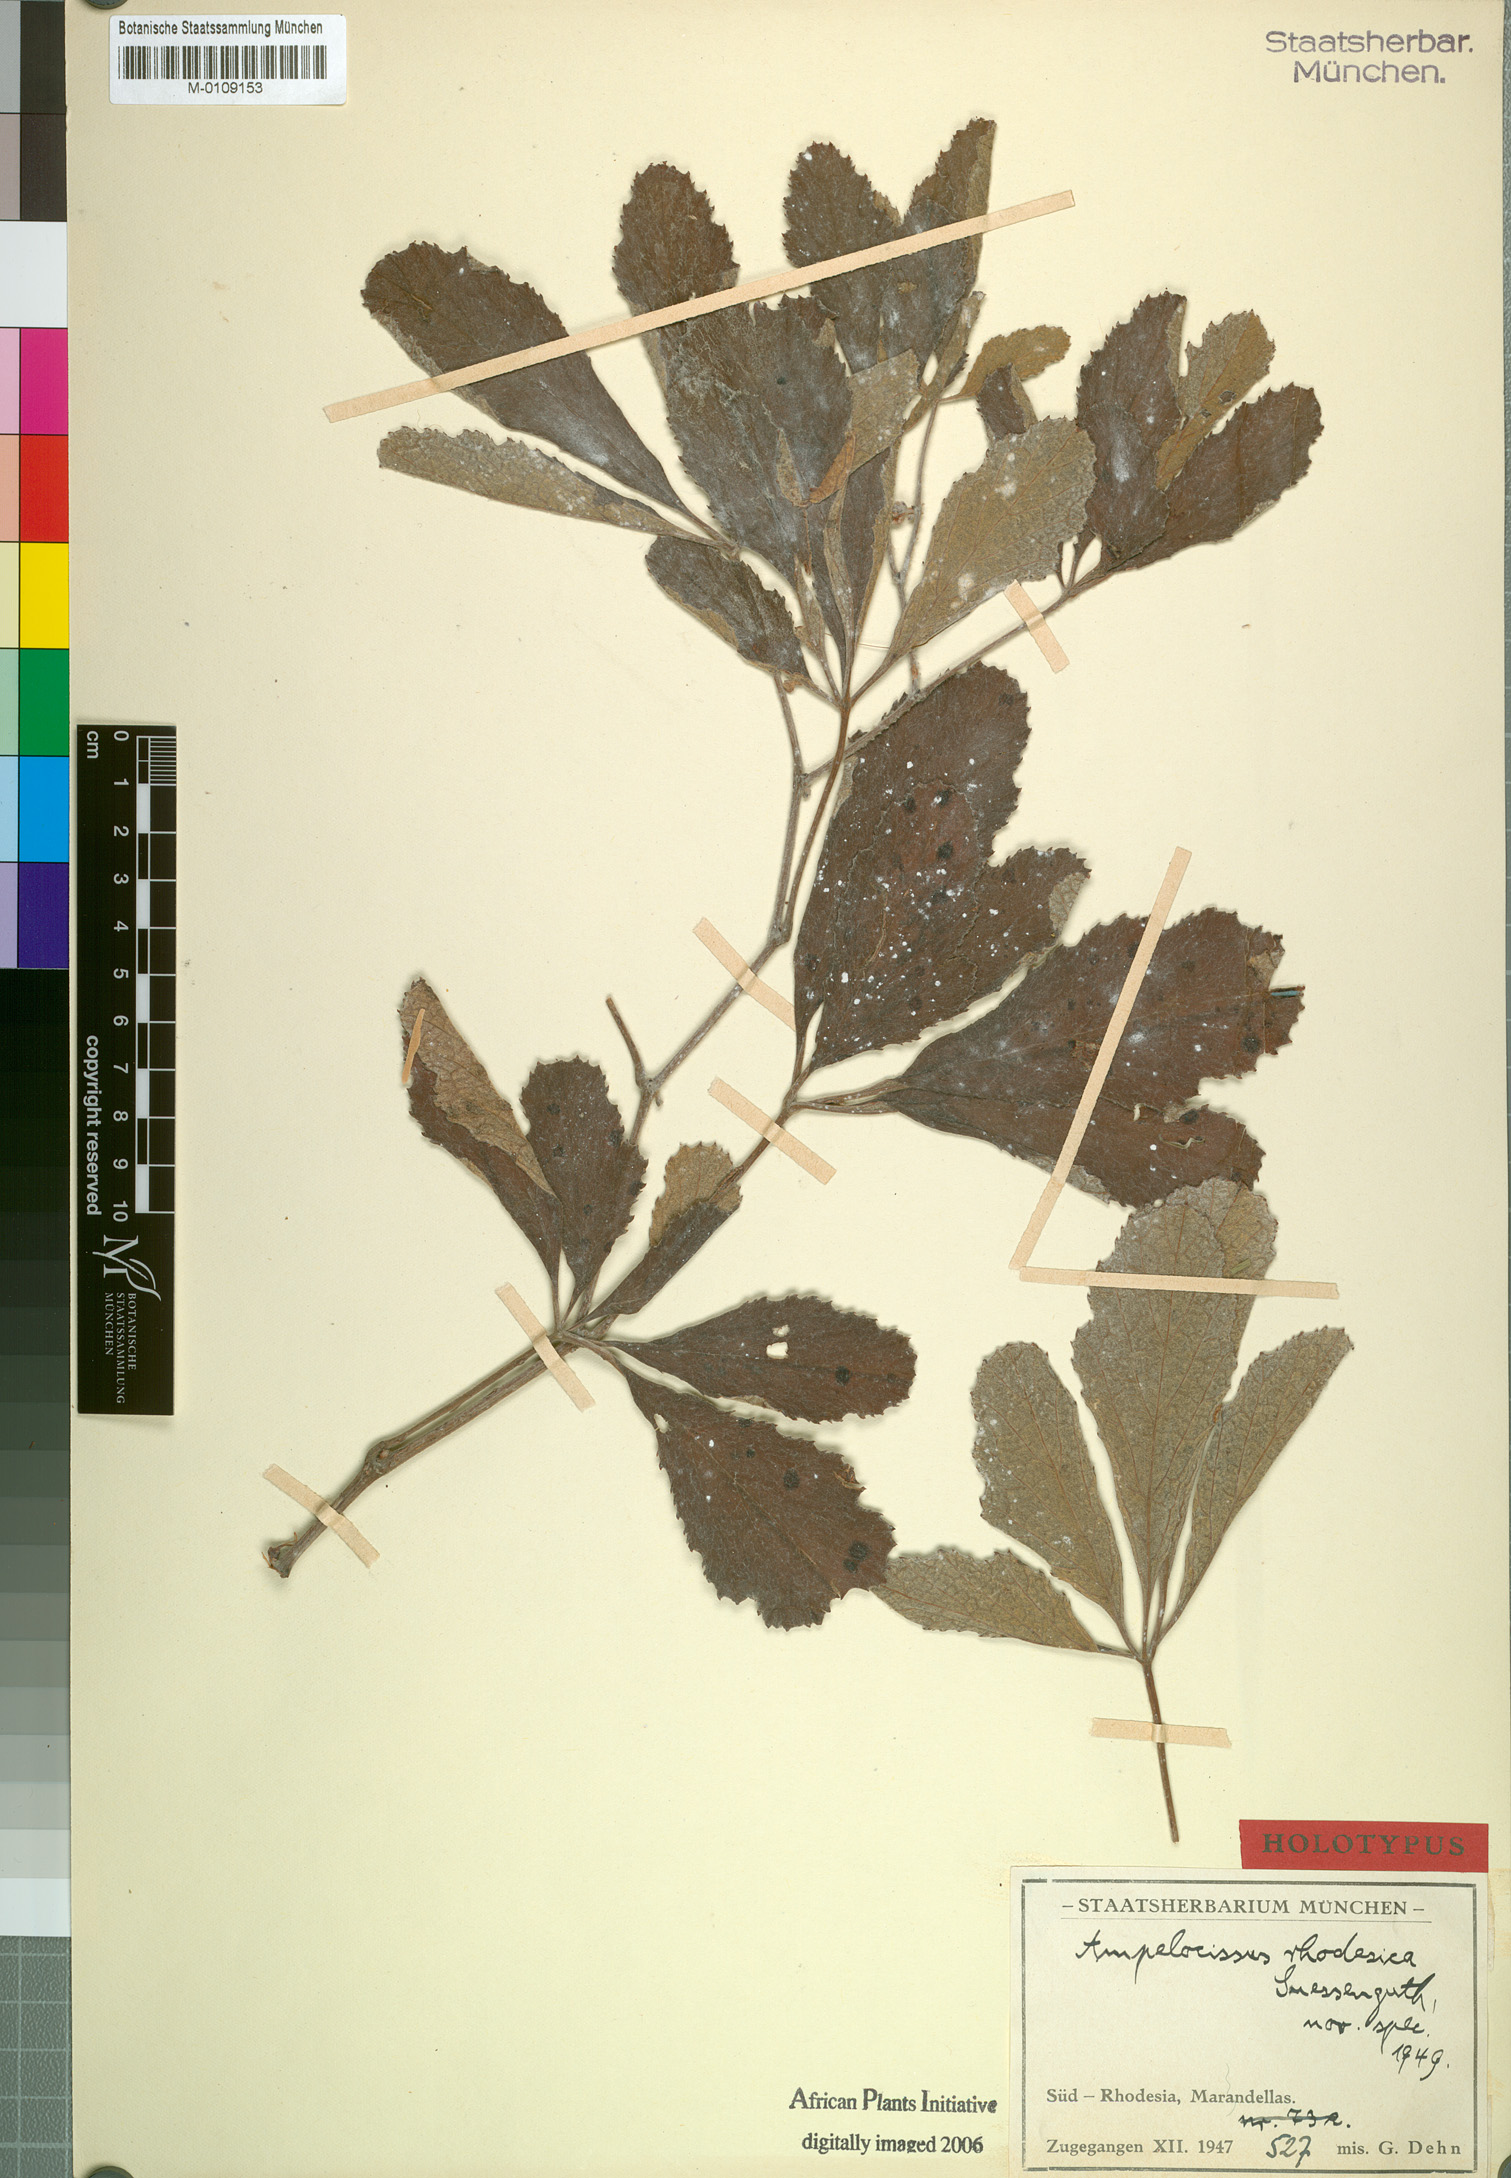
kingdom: Plantae
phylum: Tracheophyta
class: Magnoliopsida
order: Vitales
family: Vitaceae
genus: Ampelocissus
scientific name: Ampelocissus obtusata
